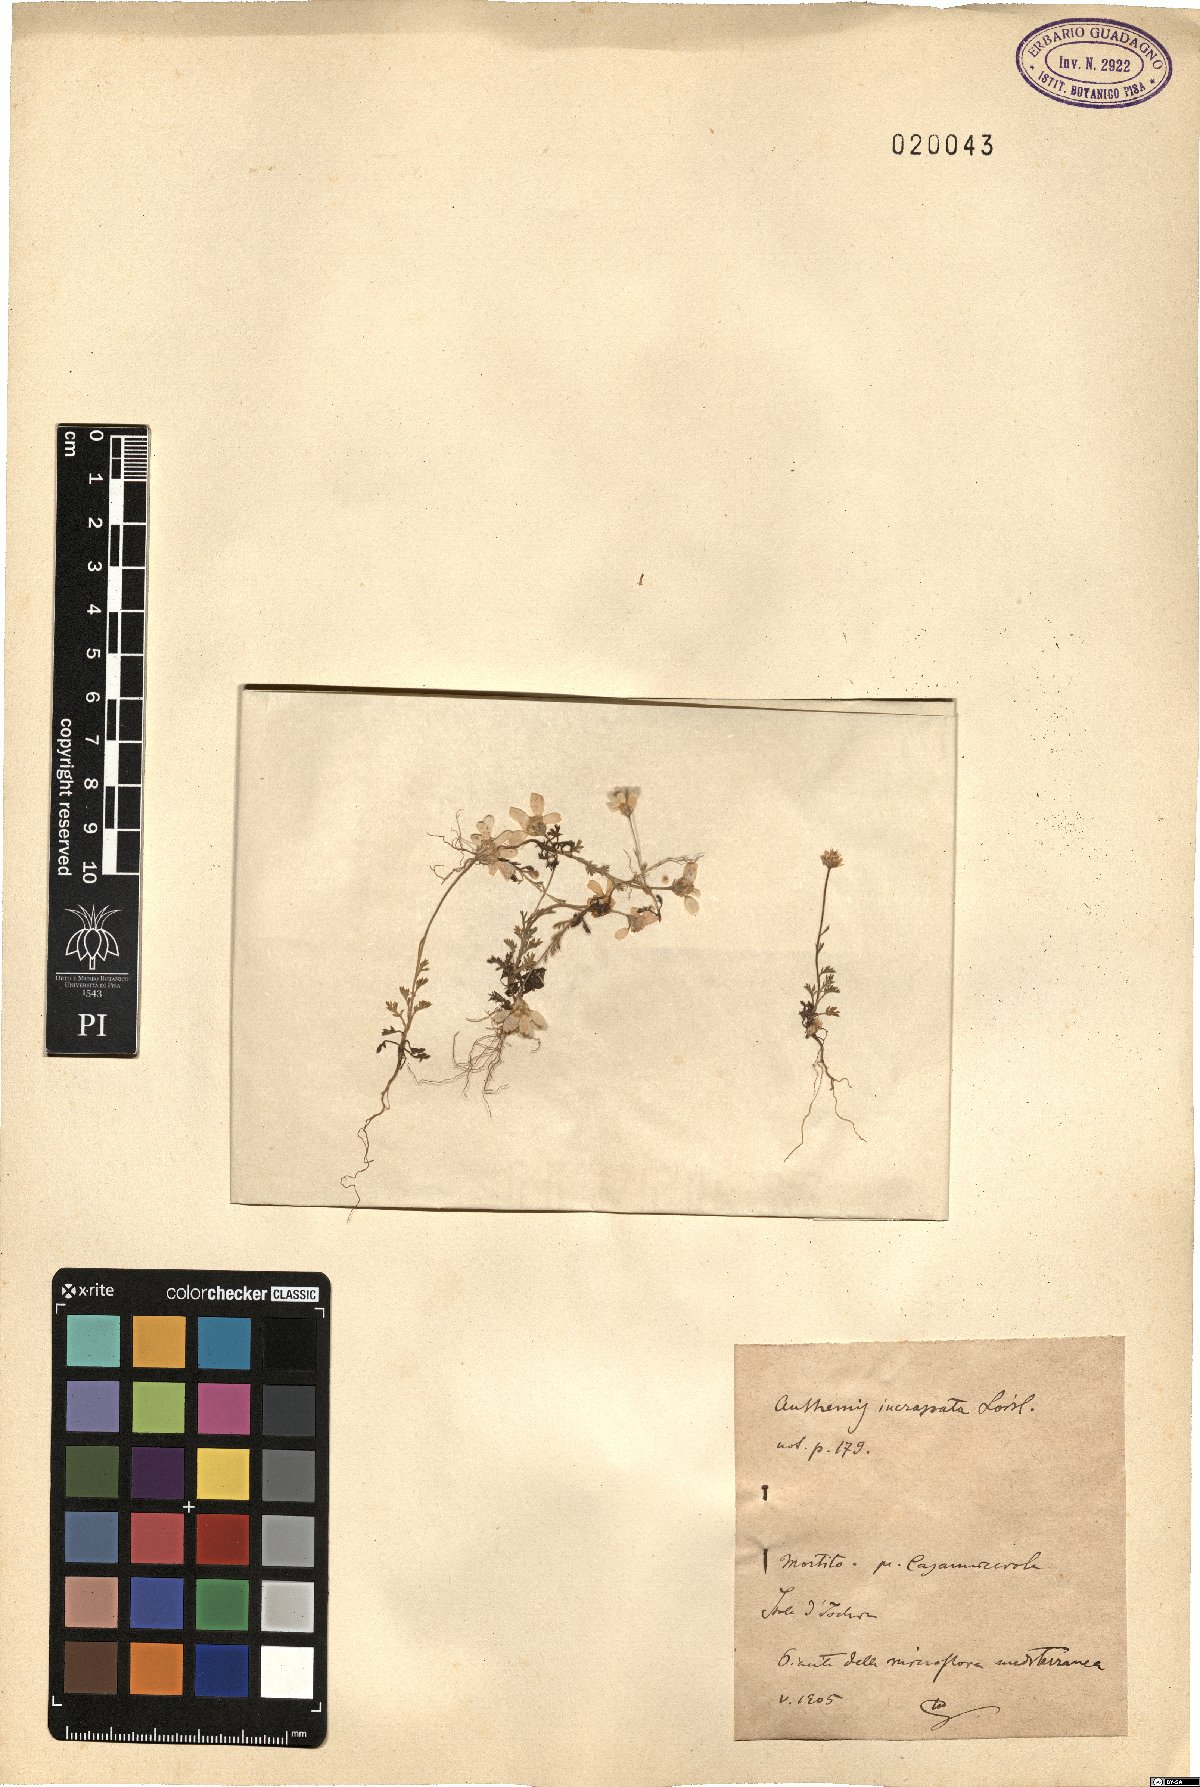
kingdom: Plantae
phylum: Tracheophyta
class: Magnoliopsida
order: Asterales
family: Asteraceae
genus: Anthemis
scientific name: Anthemis arvensis
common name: Corn chamomile
